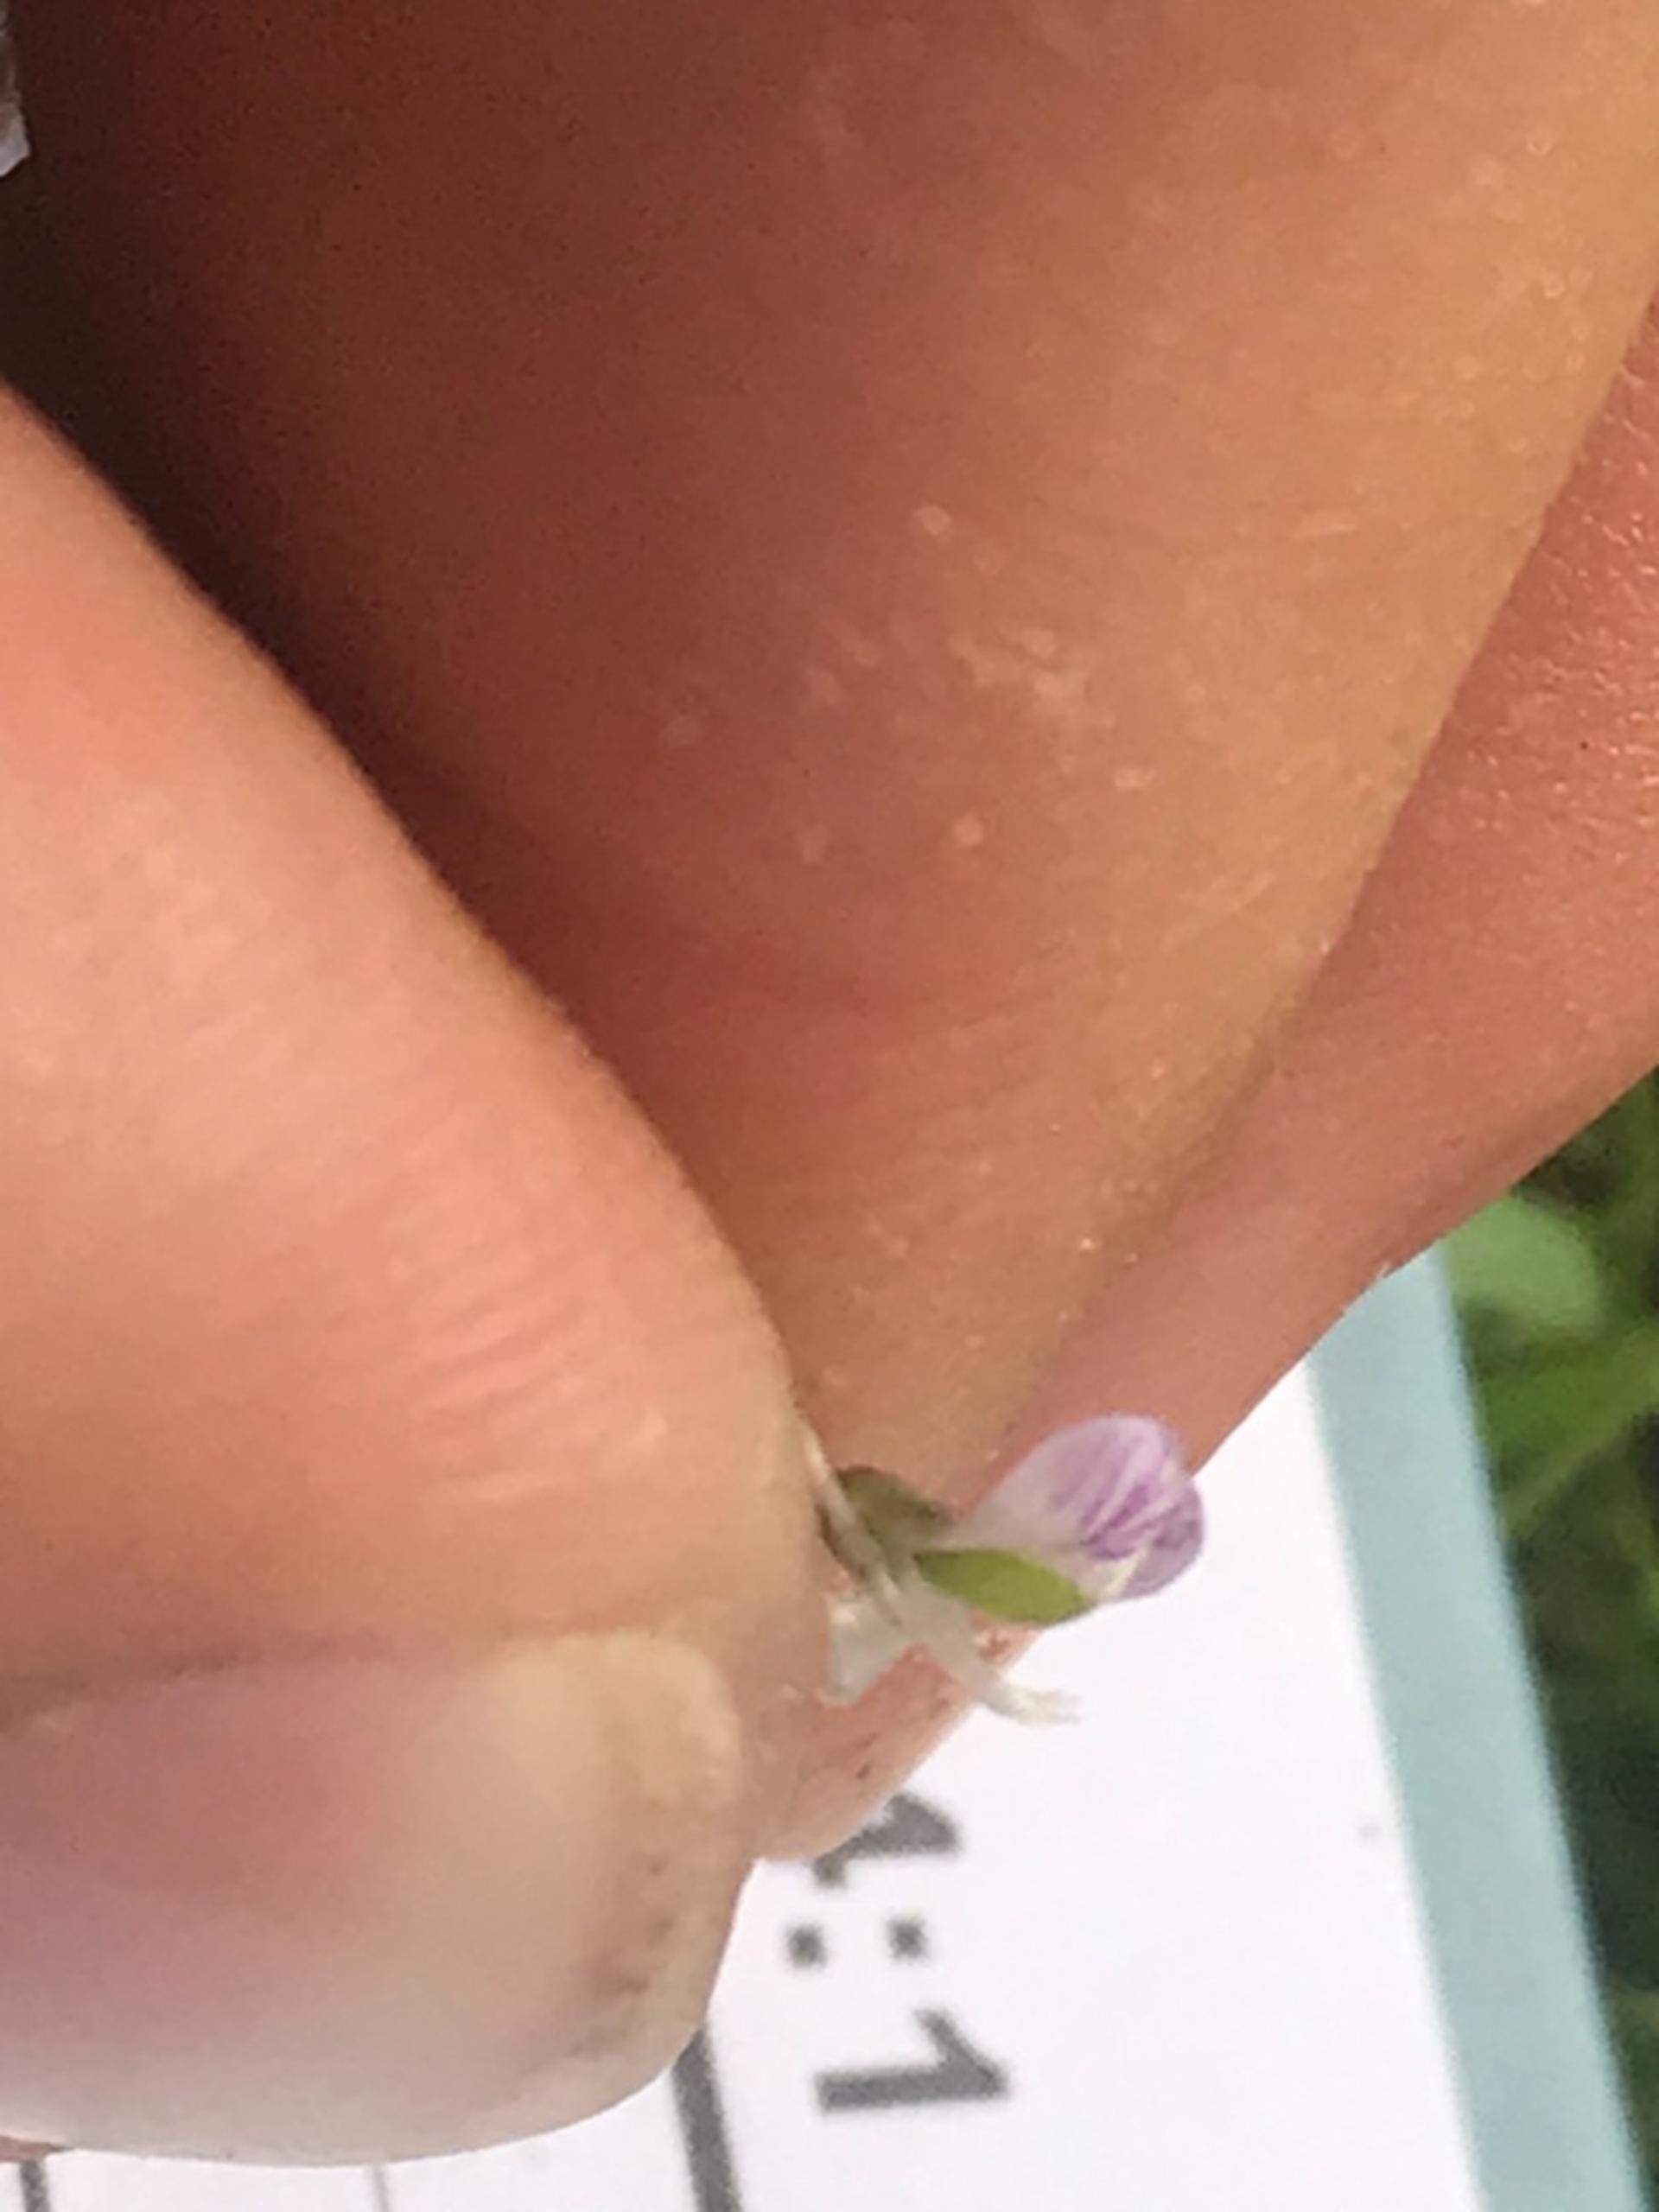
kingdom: Plantae
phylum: Tracheophyta
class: Magnoliopsida
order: Fabales
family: Fabaceae
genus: Vicia
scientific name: Vicia tetrasperma
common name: Tadder-vikke
